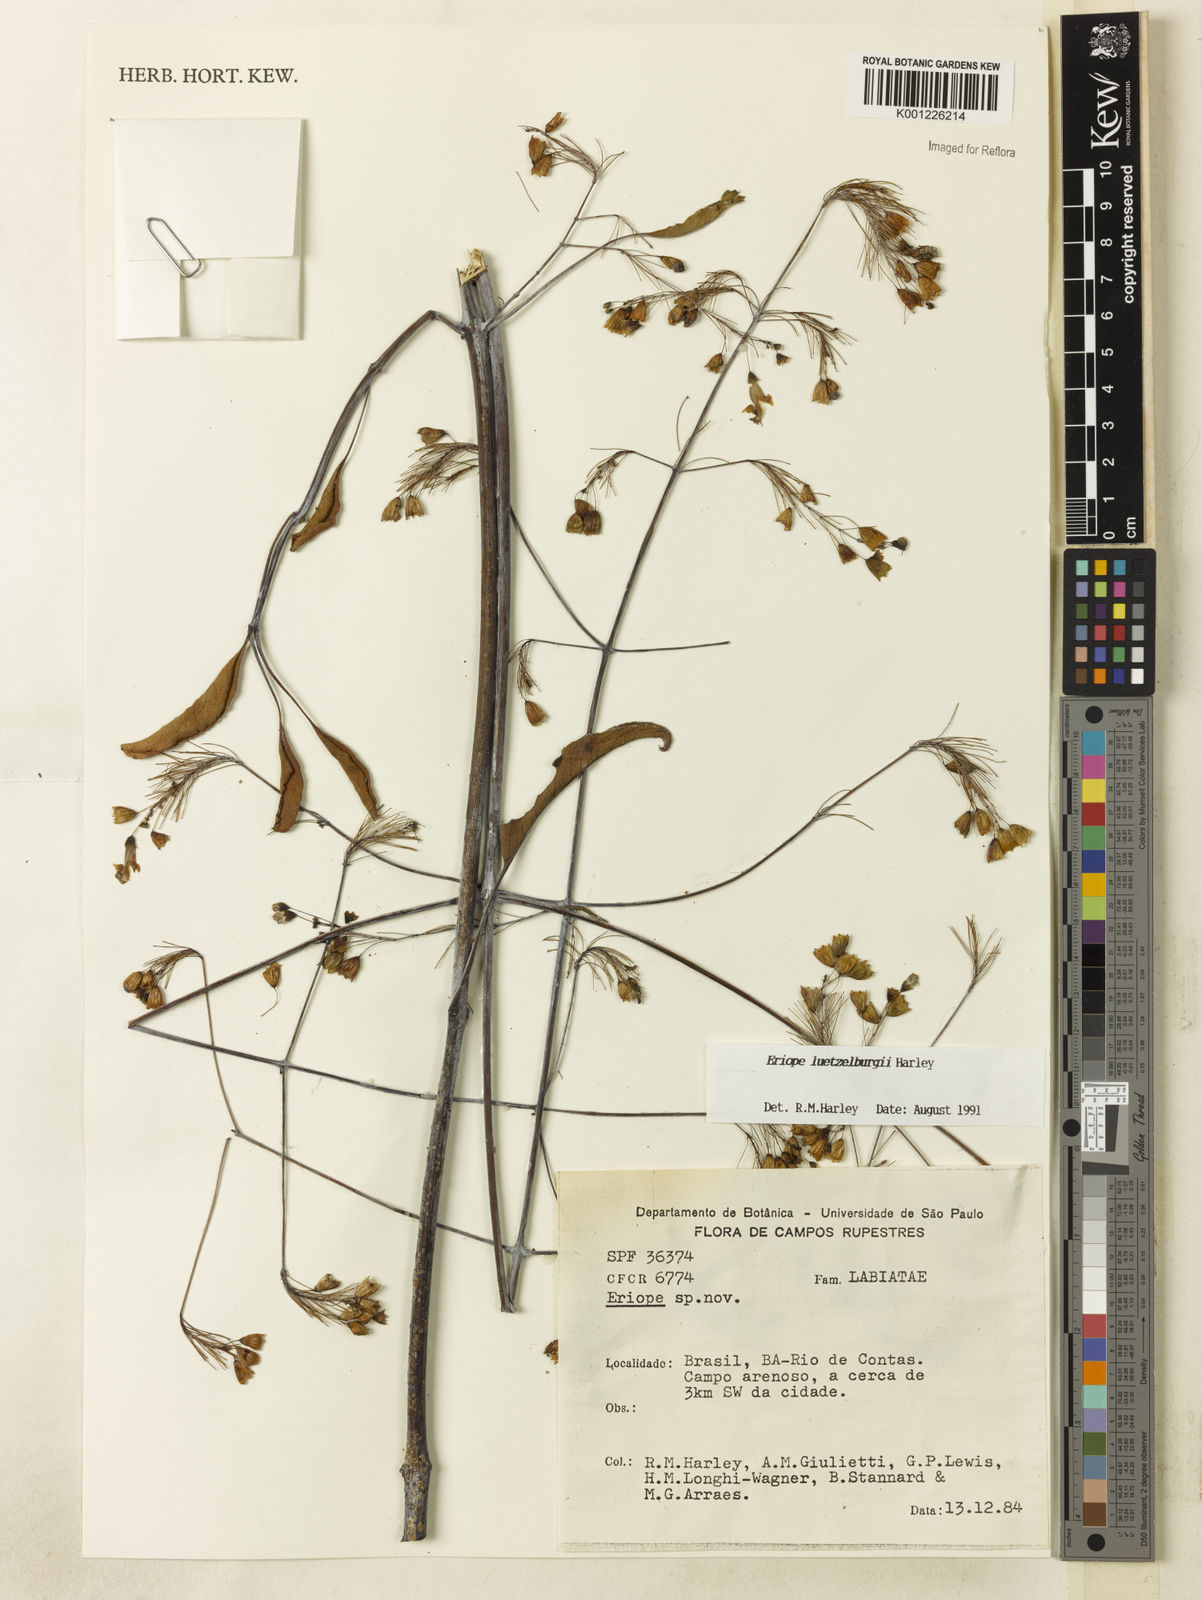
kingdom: Plantae
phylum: Tracheophyta
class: Magnoliopsida
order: Lamiales
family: Lamiaceae
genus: Eriope
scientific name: Eriope luetzelburgii
